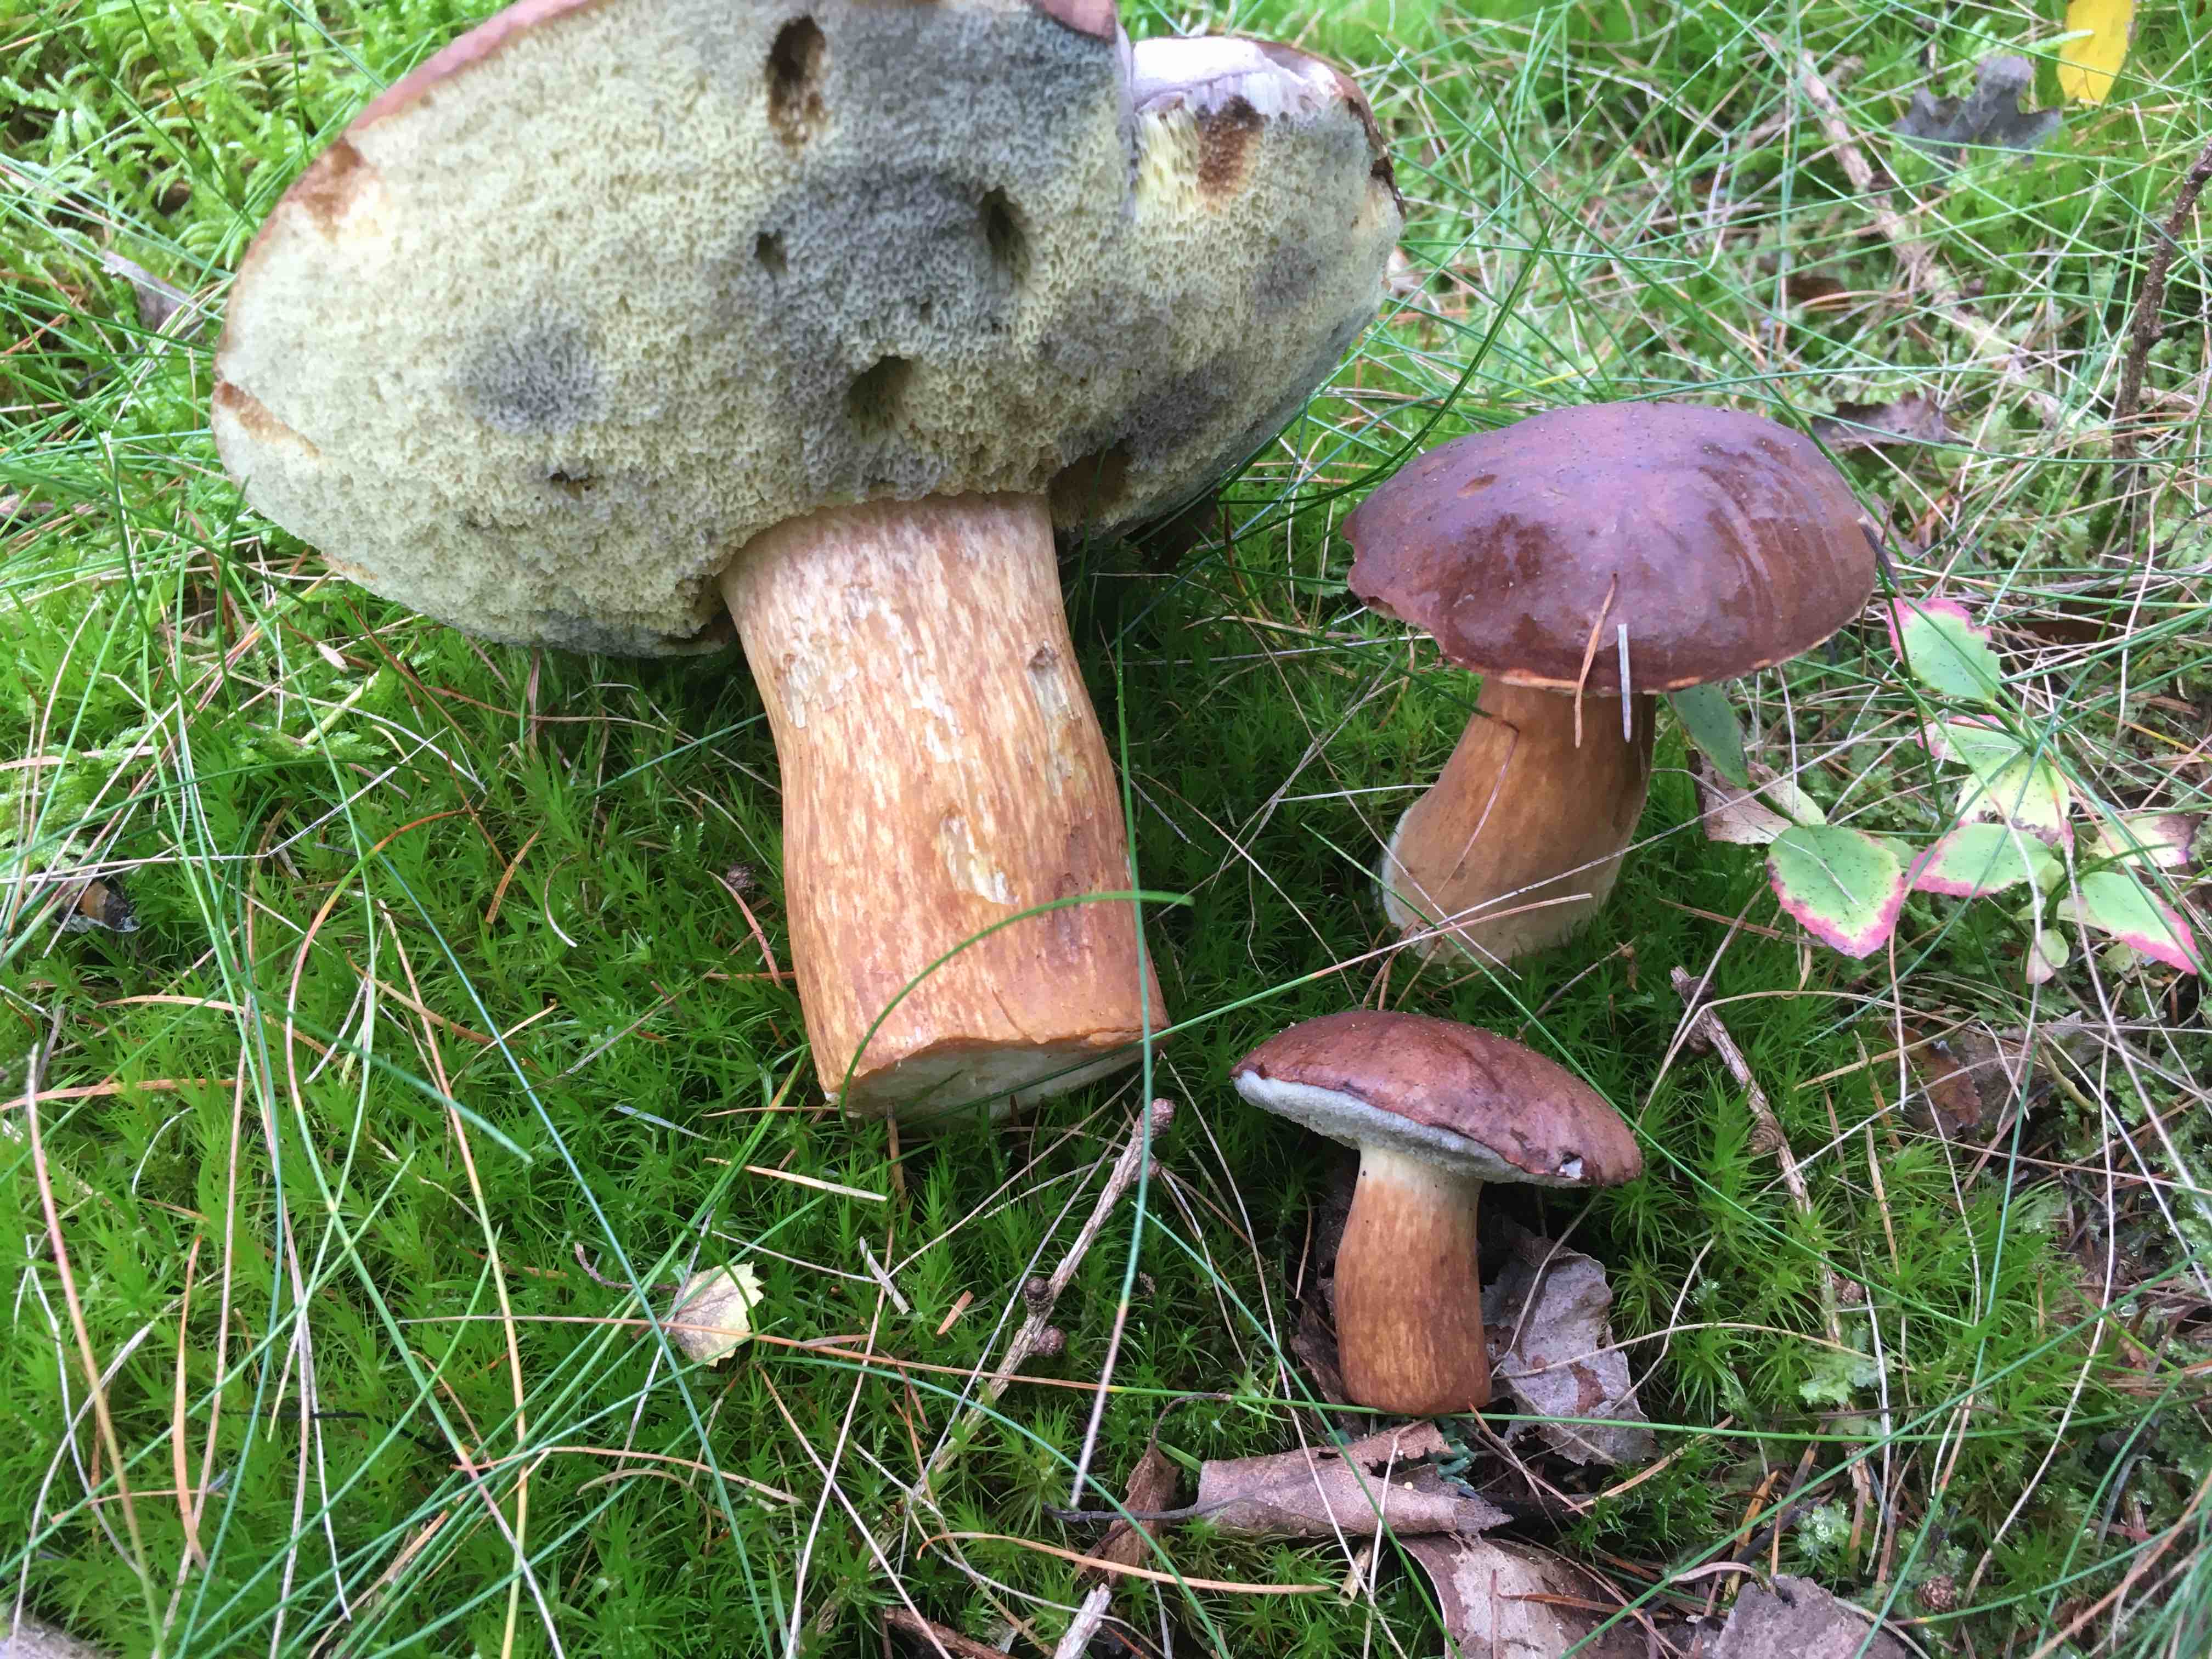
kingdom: Fungi
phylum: Basidiomycota
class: Agaricomycetes
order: Boletales
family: Boletaceae
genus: Imleria
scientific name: Imleria badia
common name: brunstokket rørhat
